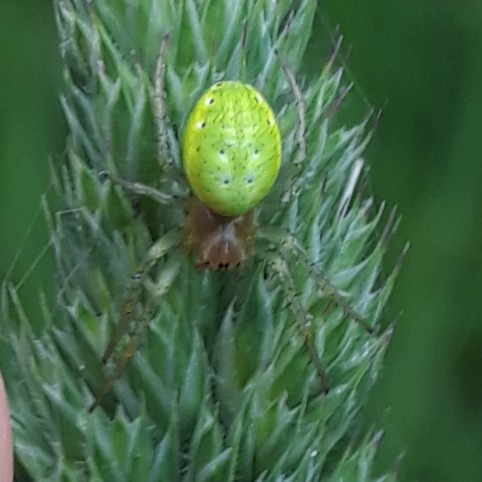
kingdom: Animalia
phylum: Arthropoda
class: Arachnida
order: Araneae
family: Araneidae
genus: Araniella
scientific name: Araniella
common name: Agurkeedderkopslægten
